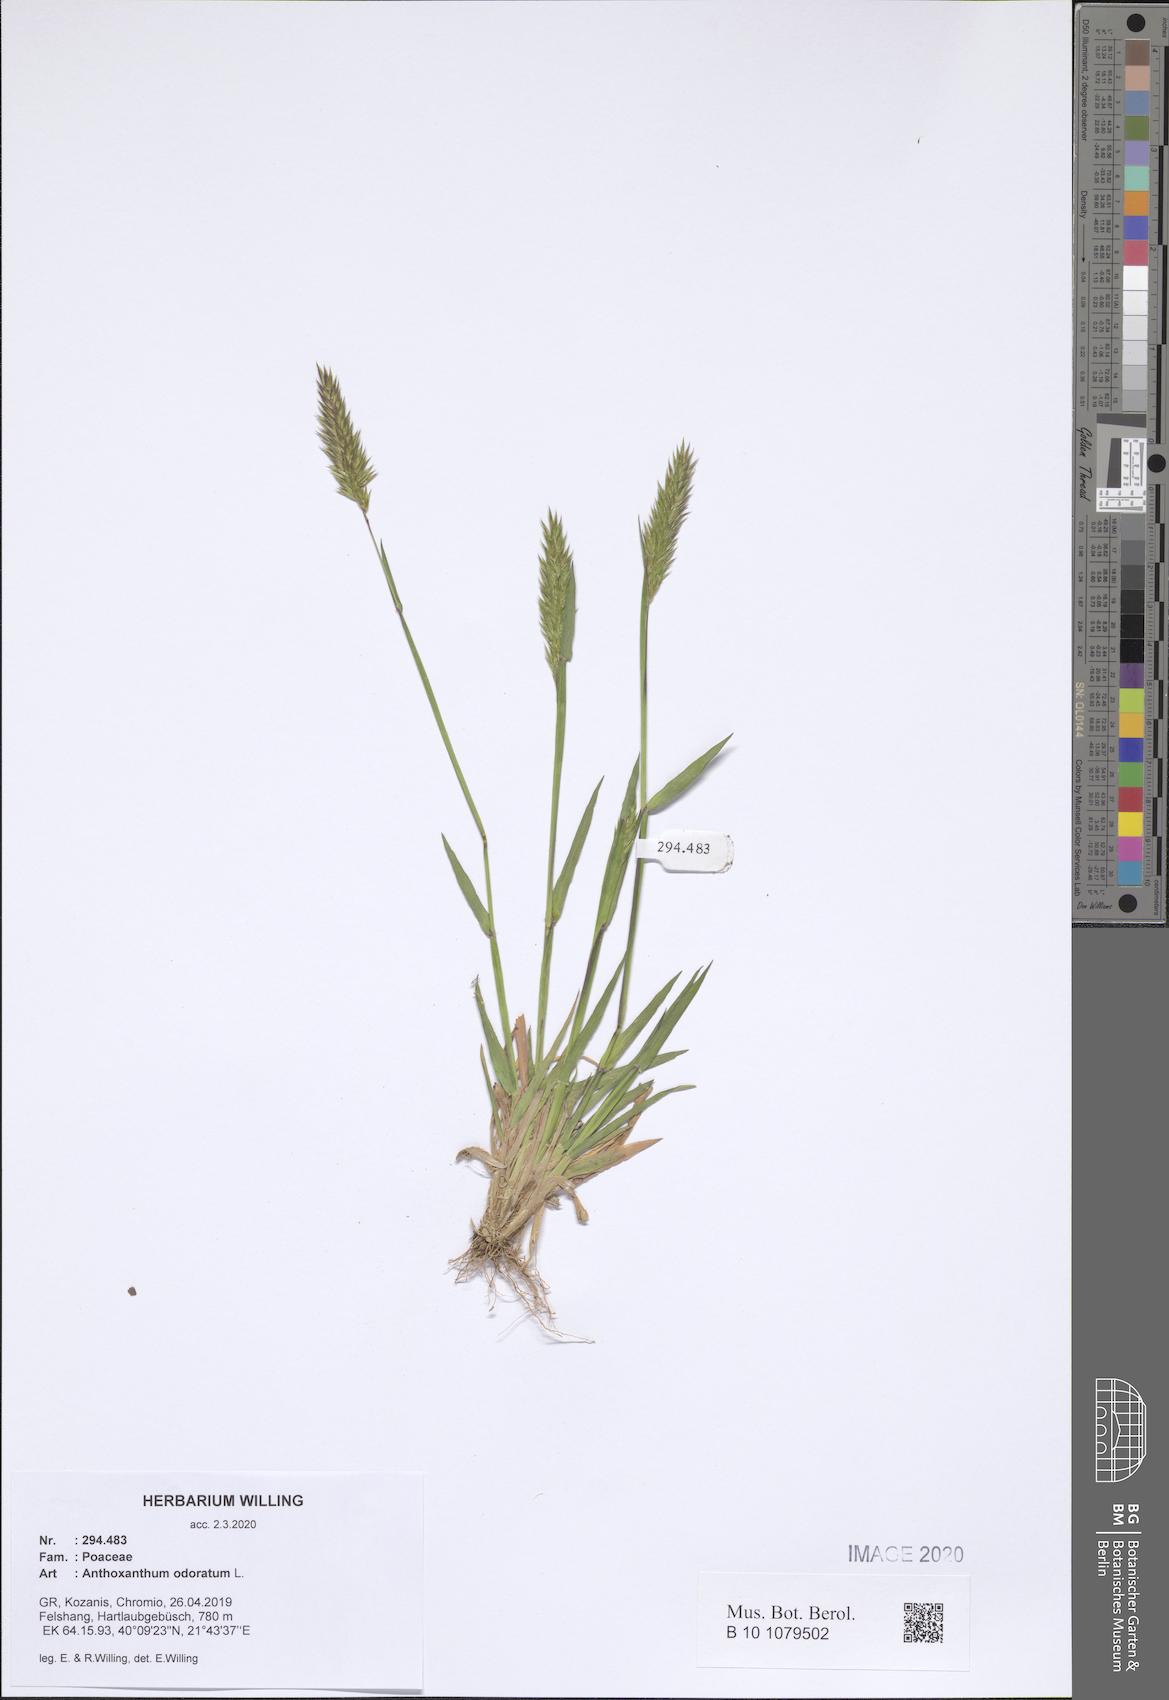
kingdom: Plantae
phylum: Tracheophyta
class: Liliopsida
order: Poales
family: Poaceae
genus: Anthoxanthum
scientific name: Anthoxanthum odoratum
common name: Sweet vernalgrass
